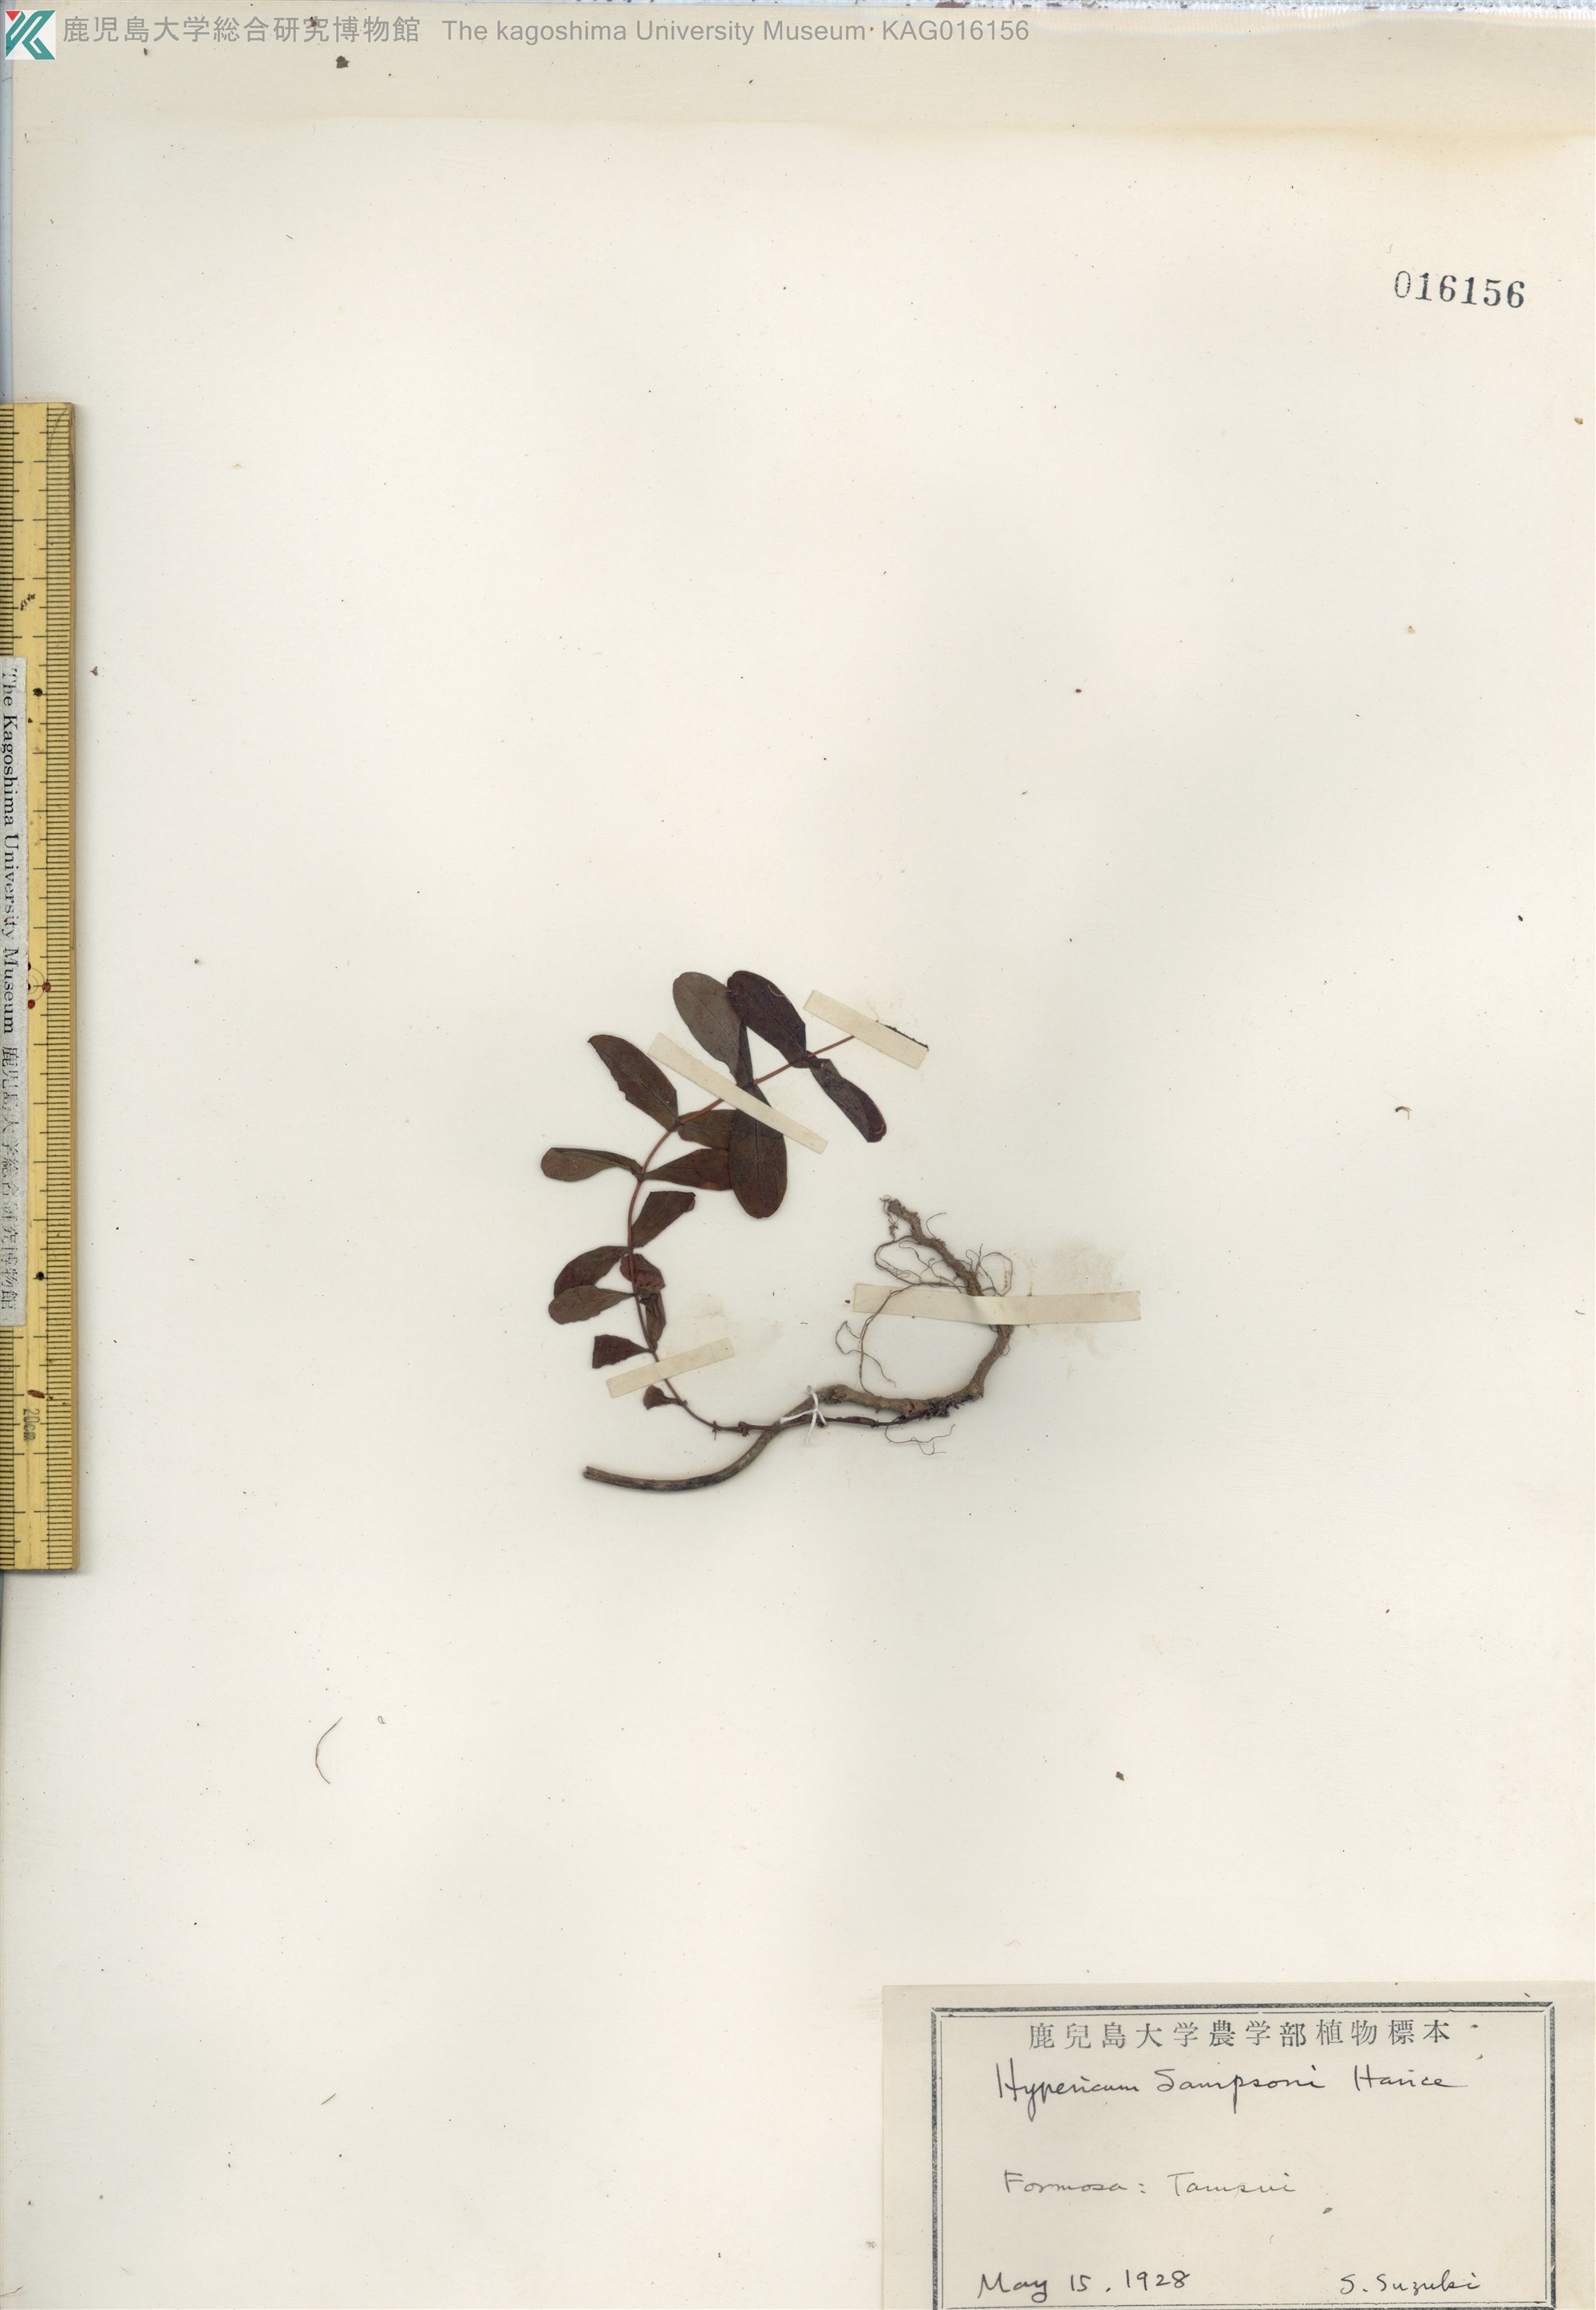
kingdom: Plantae
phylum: Tracheophyta
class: Magnoliopsida
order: Malpighiales
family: Hypericaceae
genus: Hypericum
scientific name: Hypericum sampsonii
